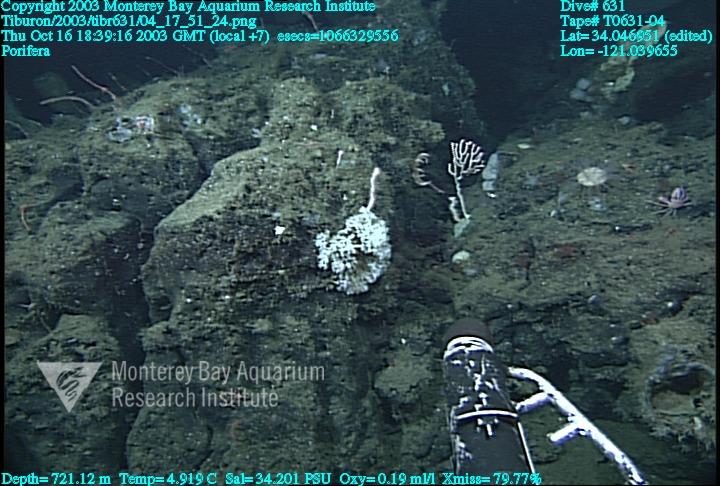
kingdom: Animalia
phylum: Porifera
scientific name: Porifera
